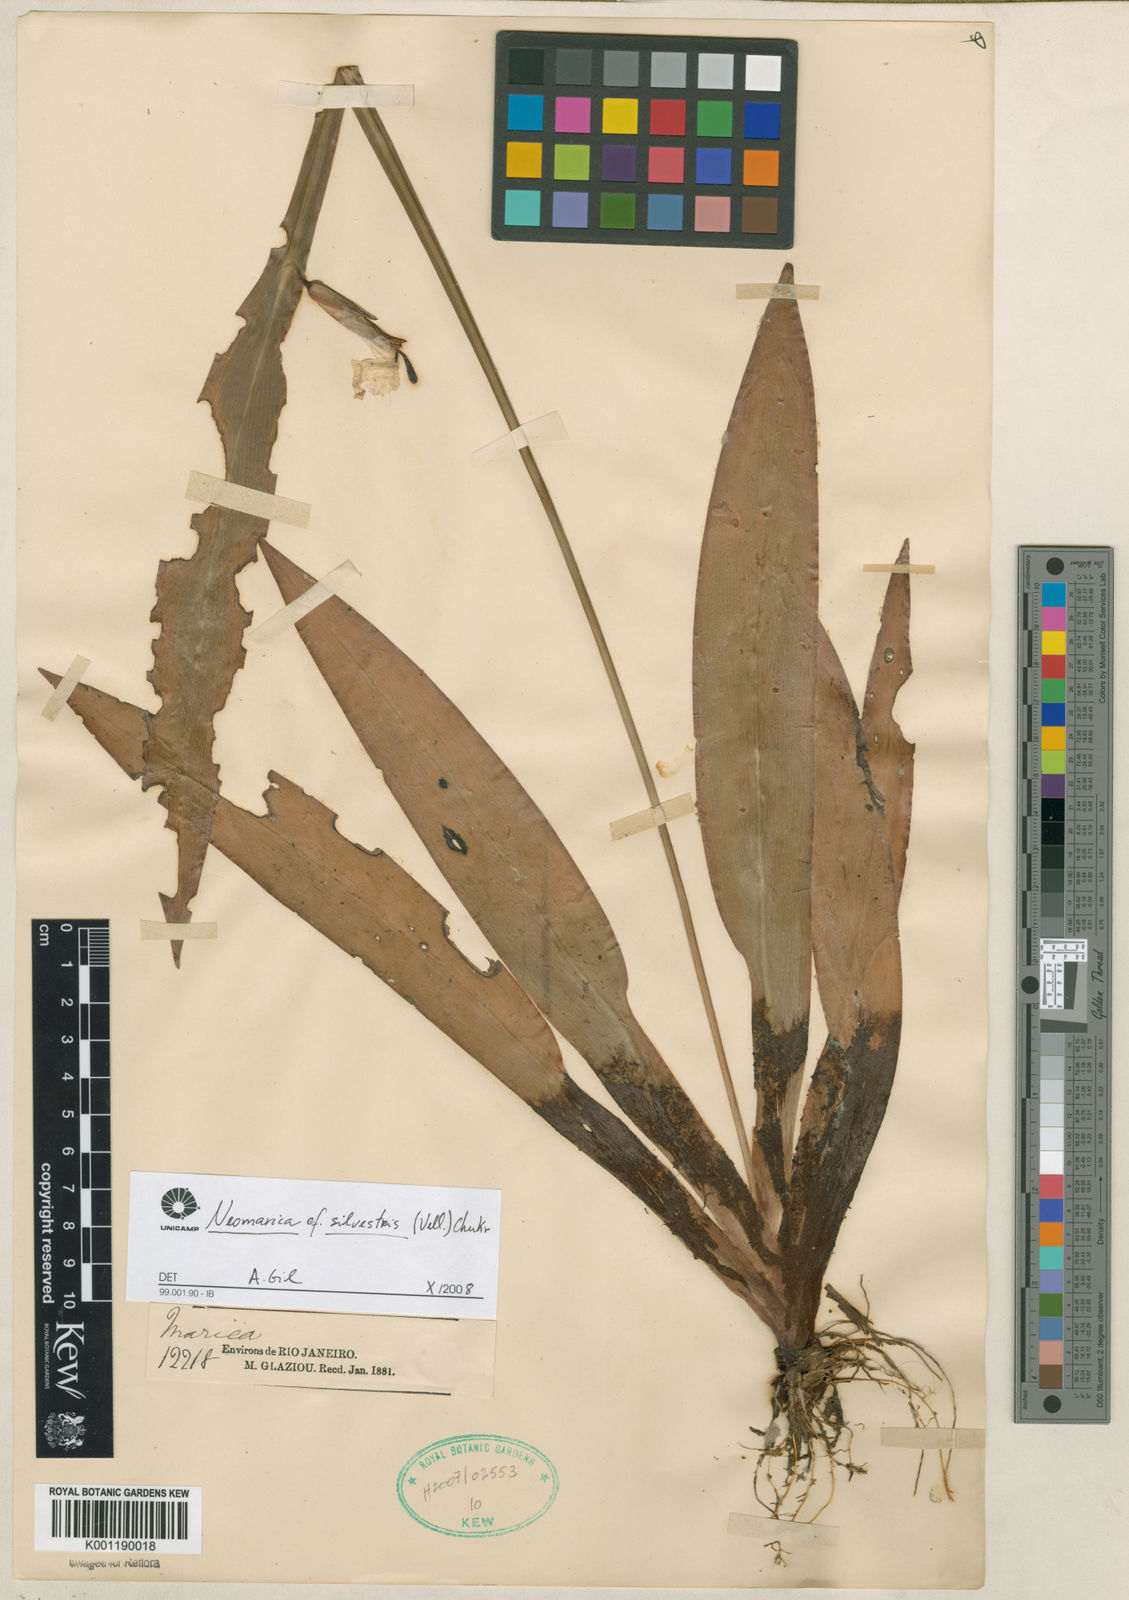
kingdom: Plantae
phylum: Tracheophyta
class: Liliopsida
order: Asparagales
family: Iridaceae
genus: Trimezia
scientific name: Trimezia silvestris
